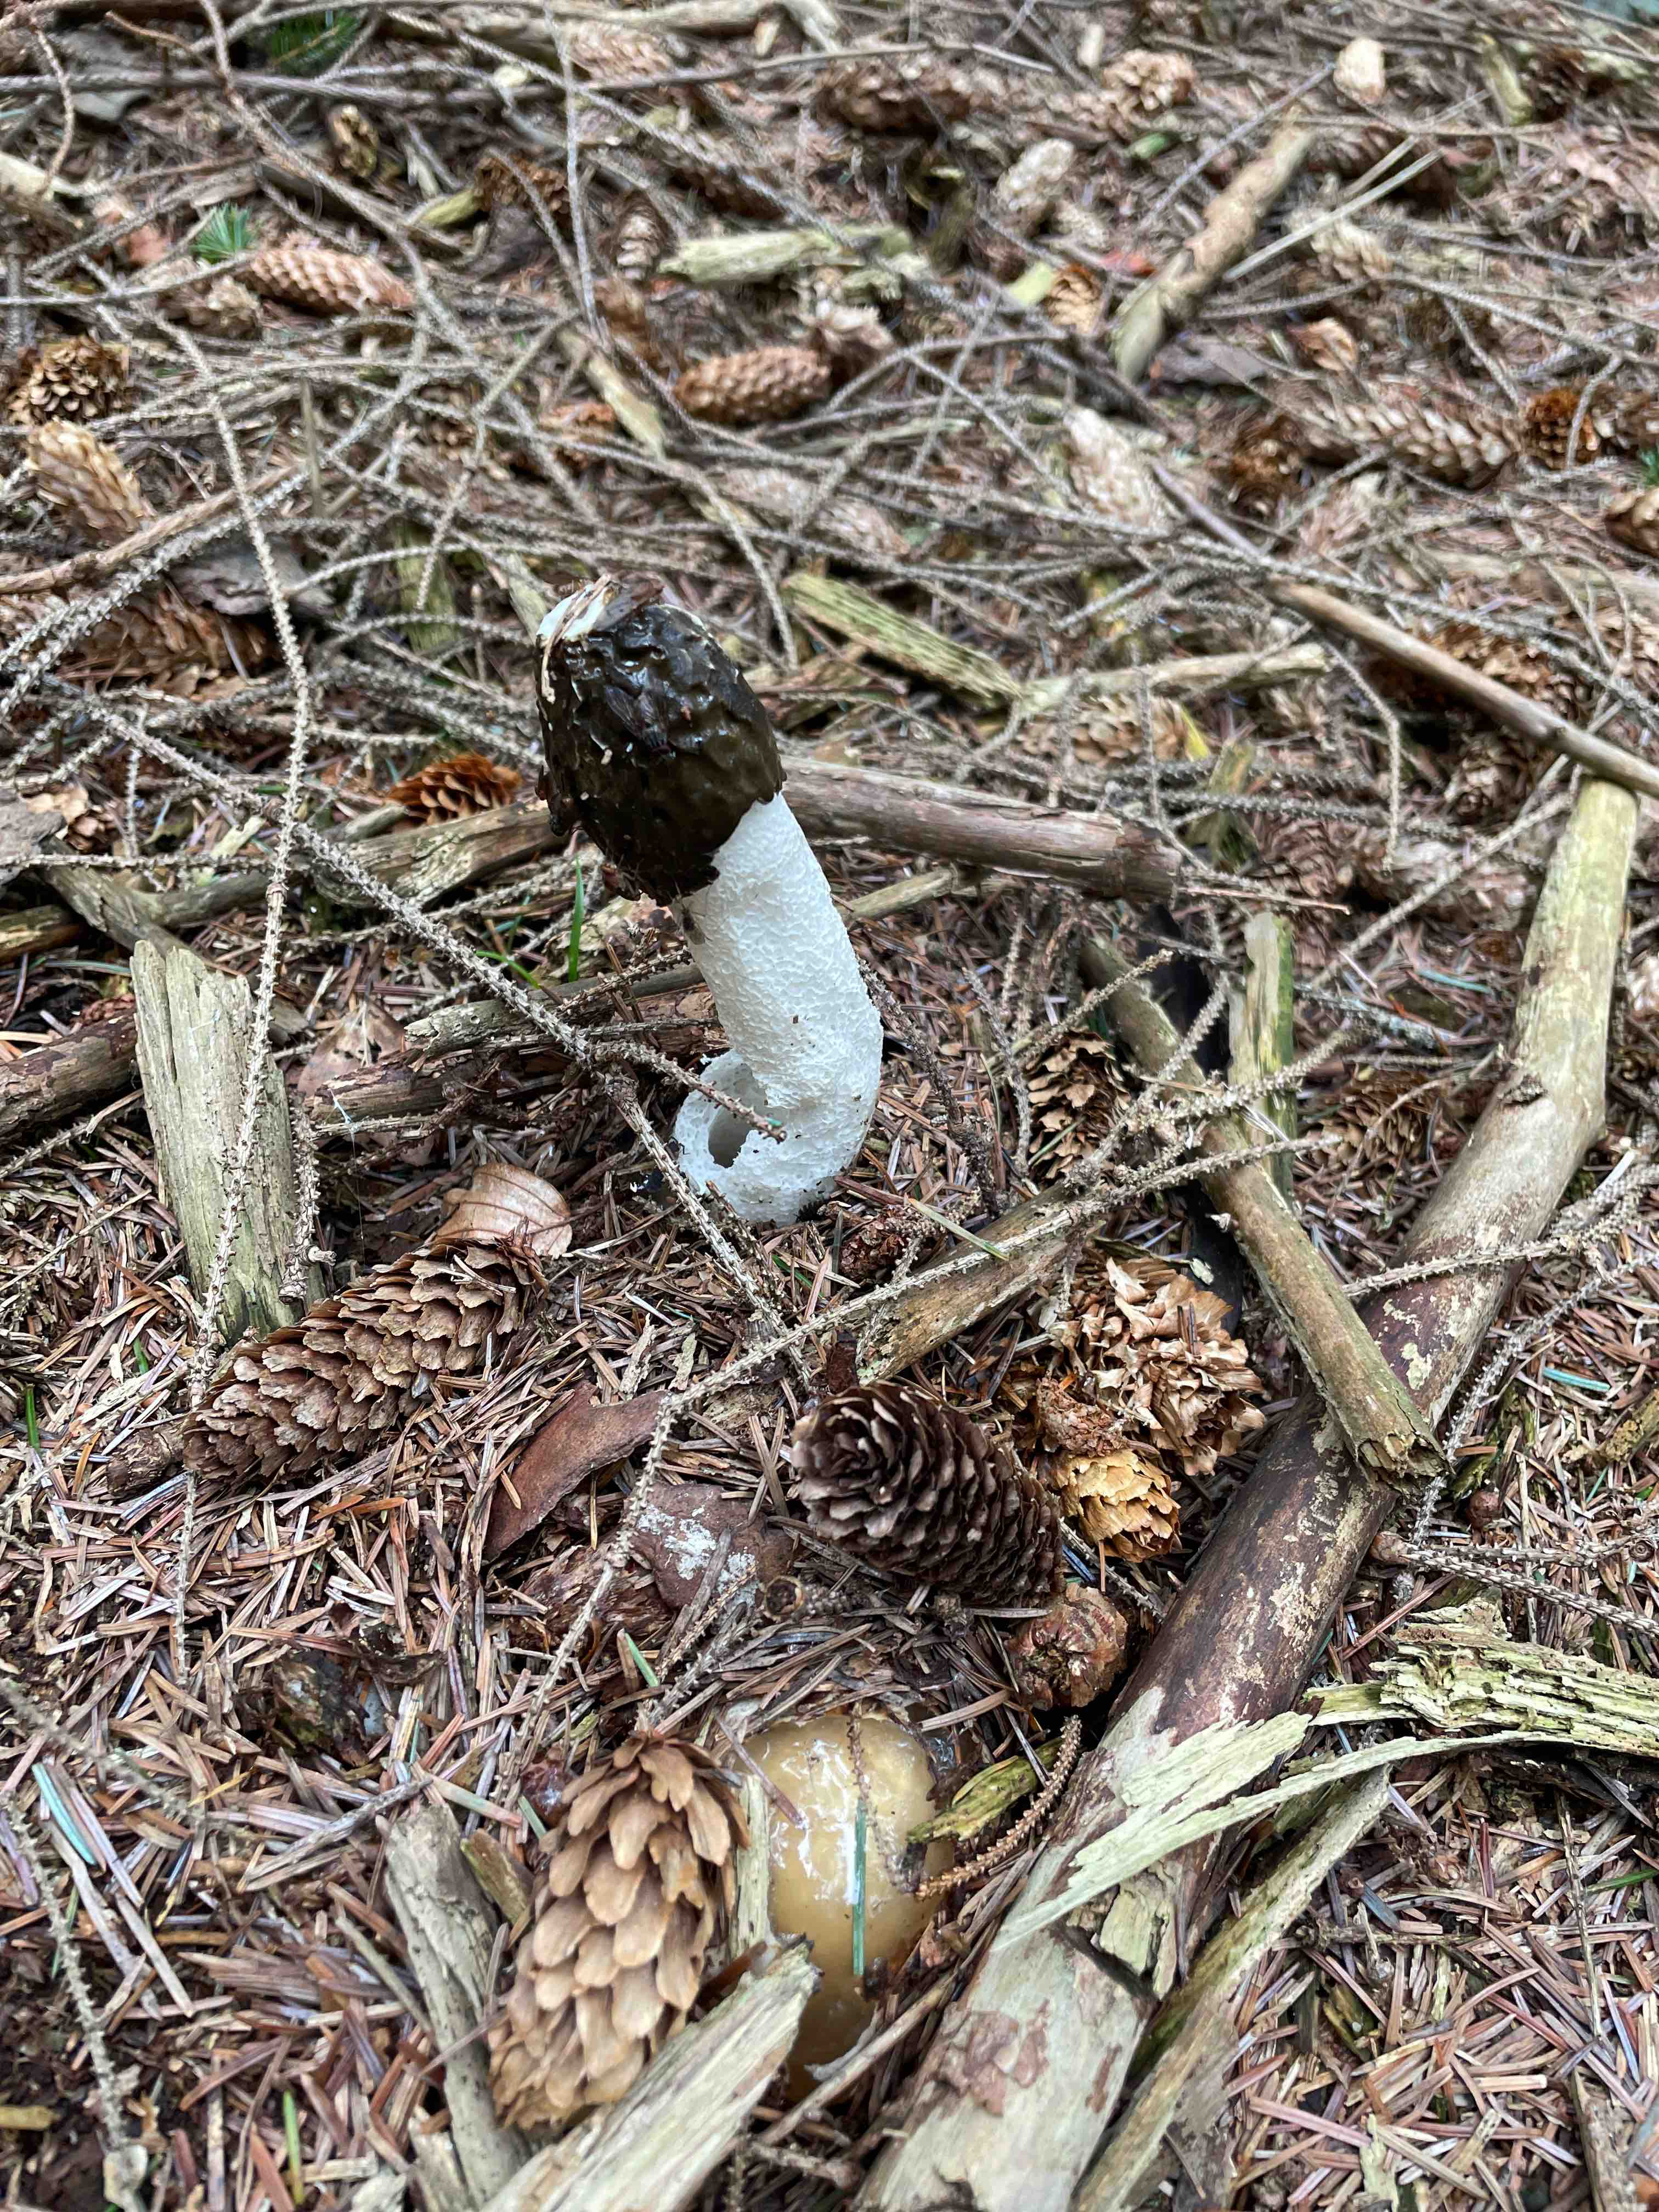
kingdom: Fungi
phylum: Basidiomycota
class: Agaricomycetes
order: Phallales
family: Phallaceae
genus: Phallus
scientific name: Phallus impudicus
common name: almindelig stinksvamp
